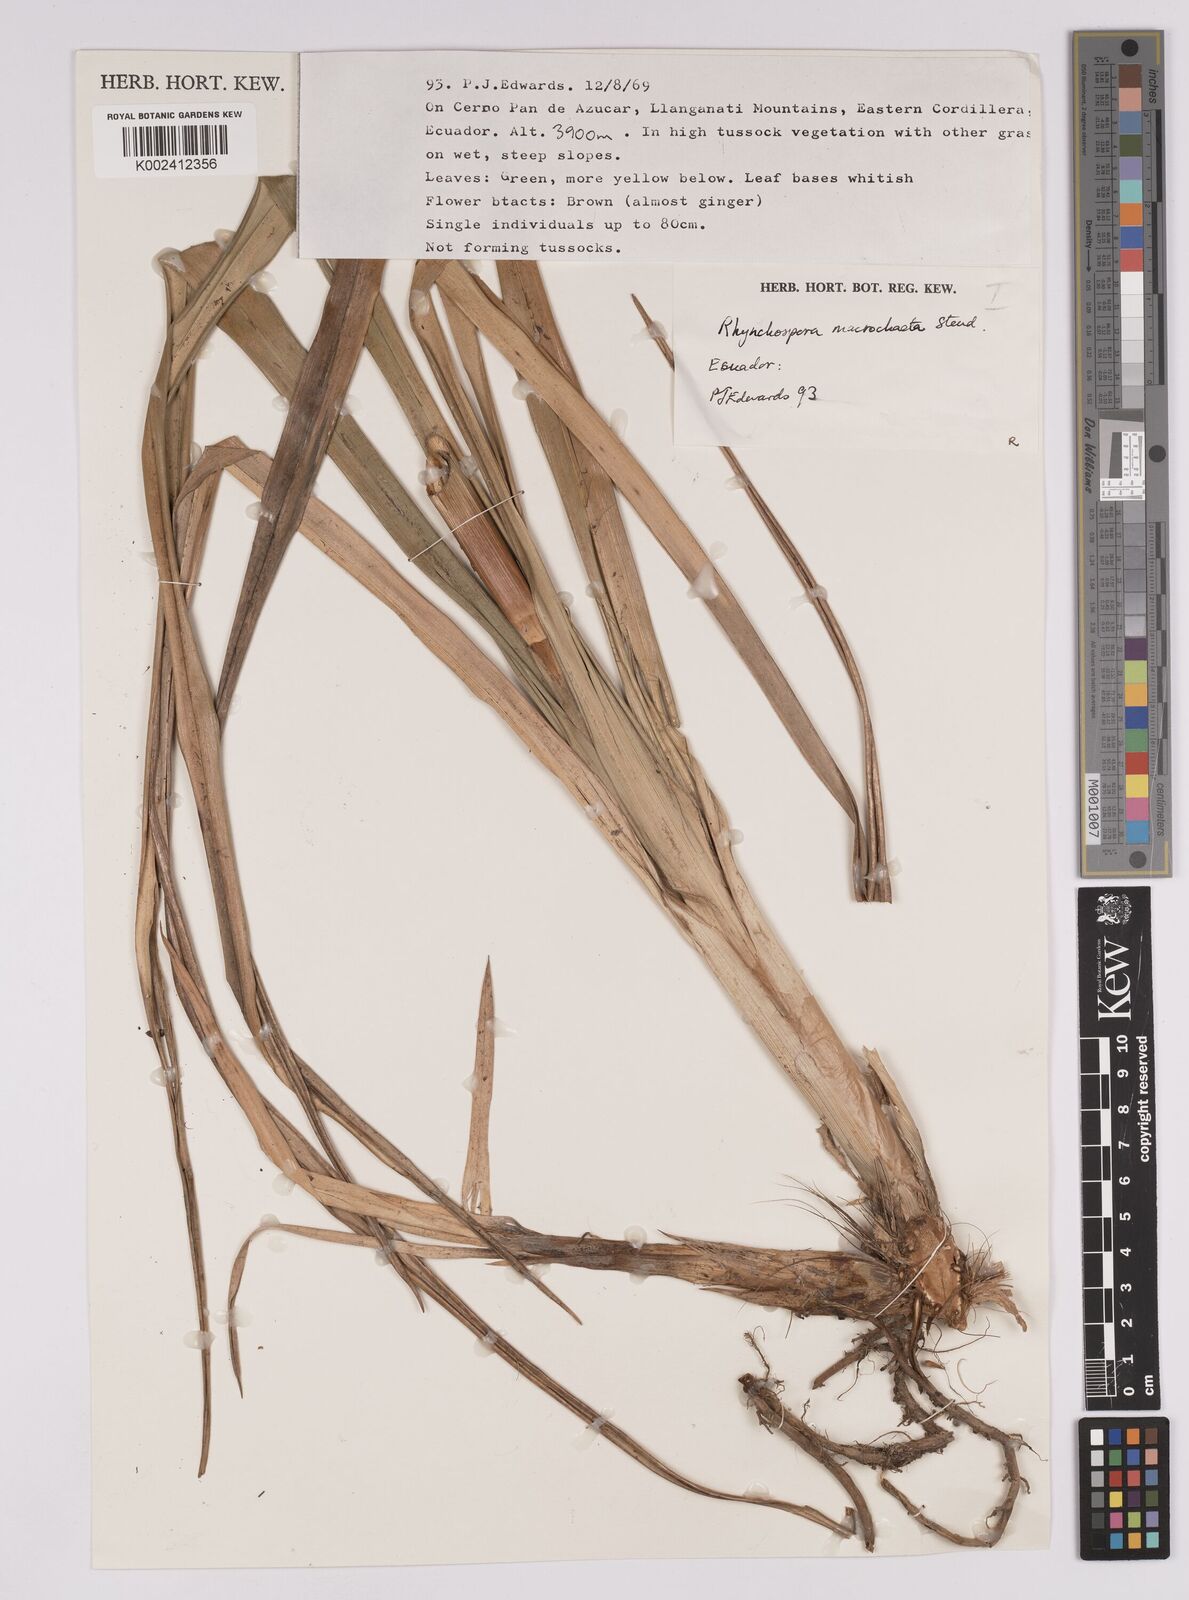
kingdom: Plantae
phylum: Tracheophyta
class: Liliopsida
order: Poales
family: Cyperaceae
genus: Rhynchospora
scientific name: Rhynchospora macrochaeta
